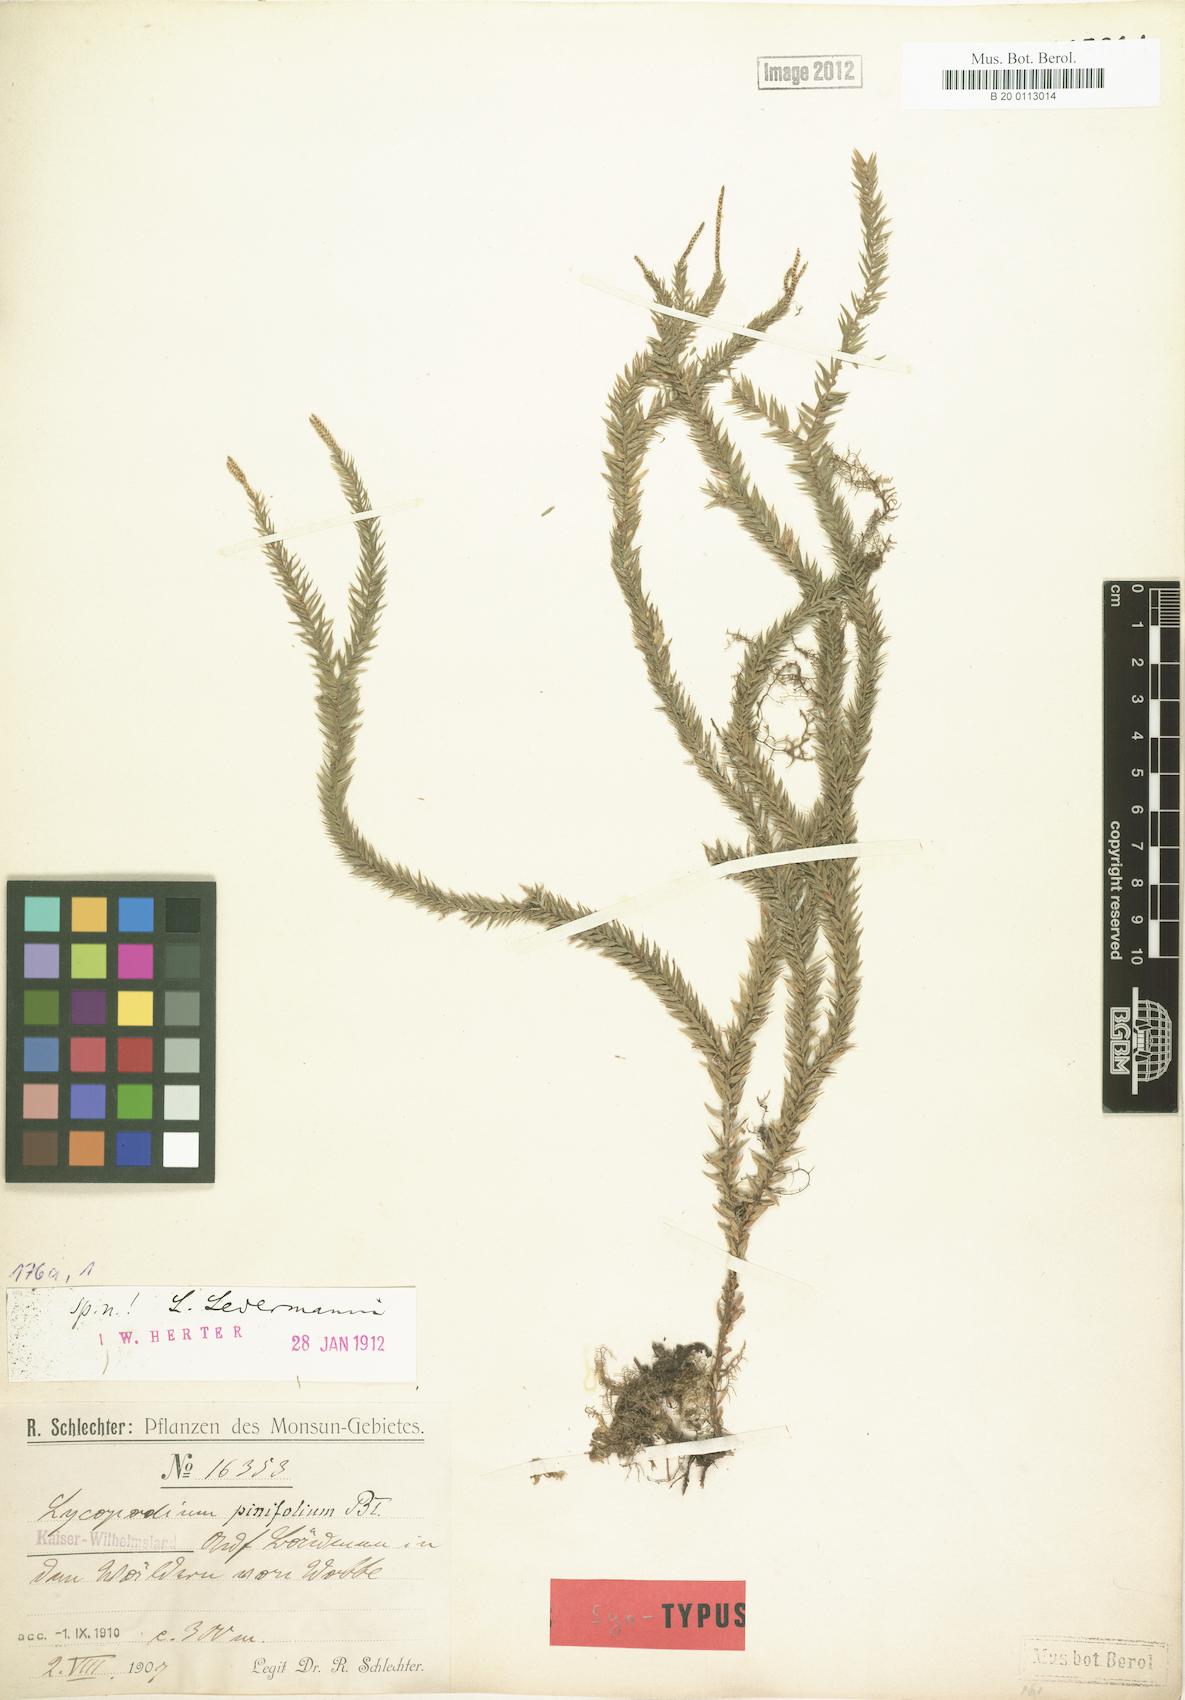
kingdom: Plantae
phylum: Tracheophyta
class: Lycopodiopsida
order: Lycopodiales
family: Lycopodiaceae
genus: Phlegmariurus
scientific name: Phlegmariurus ledermannii
